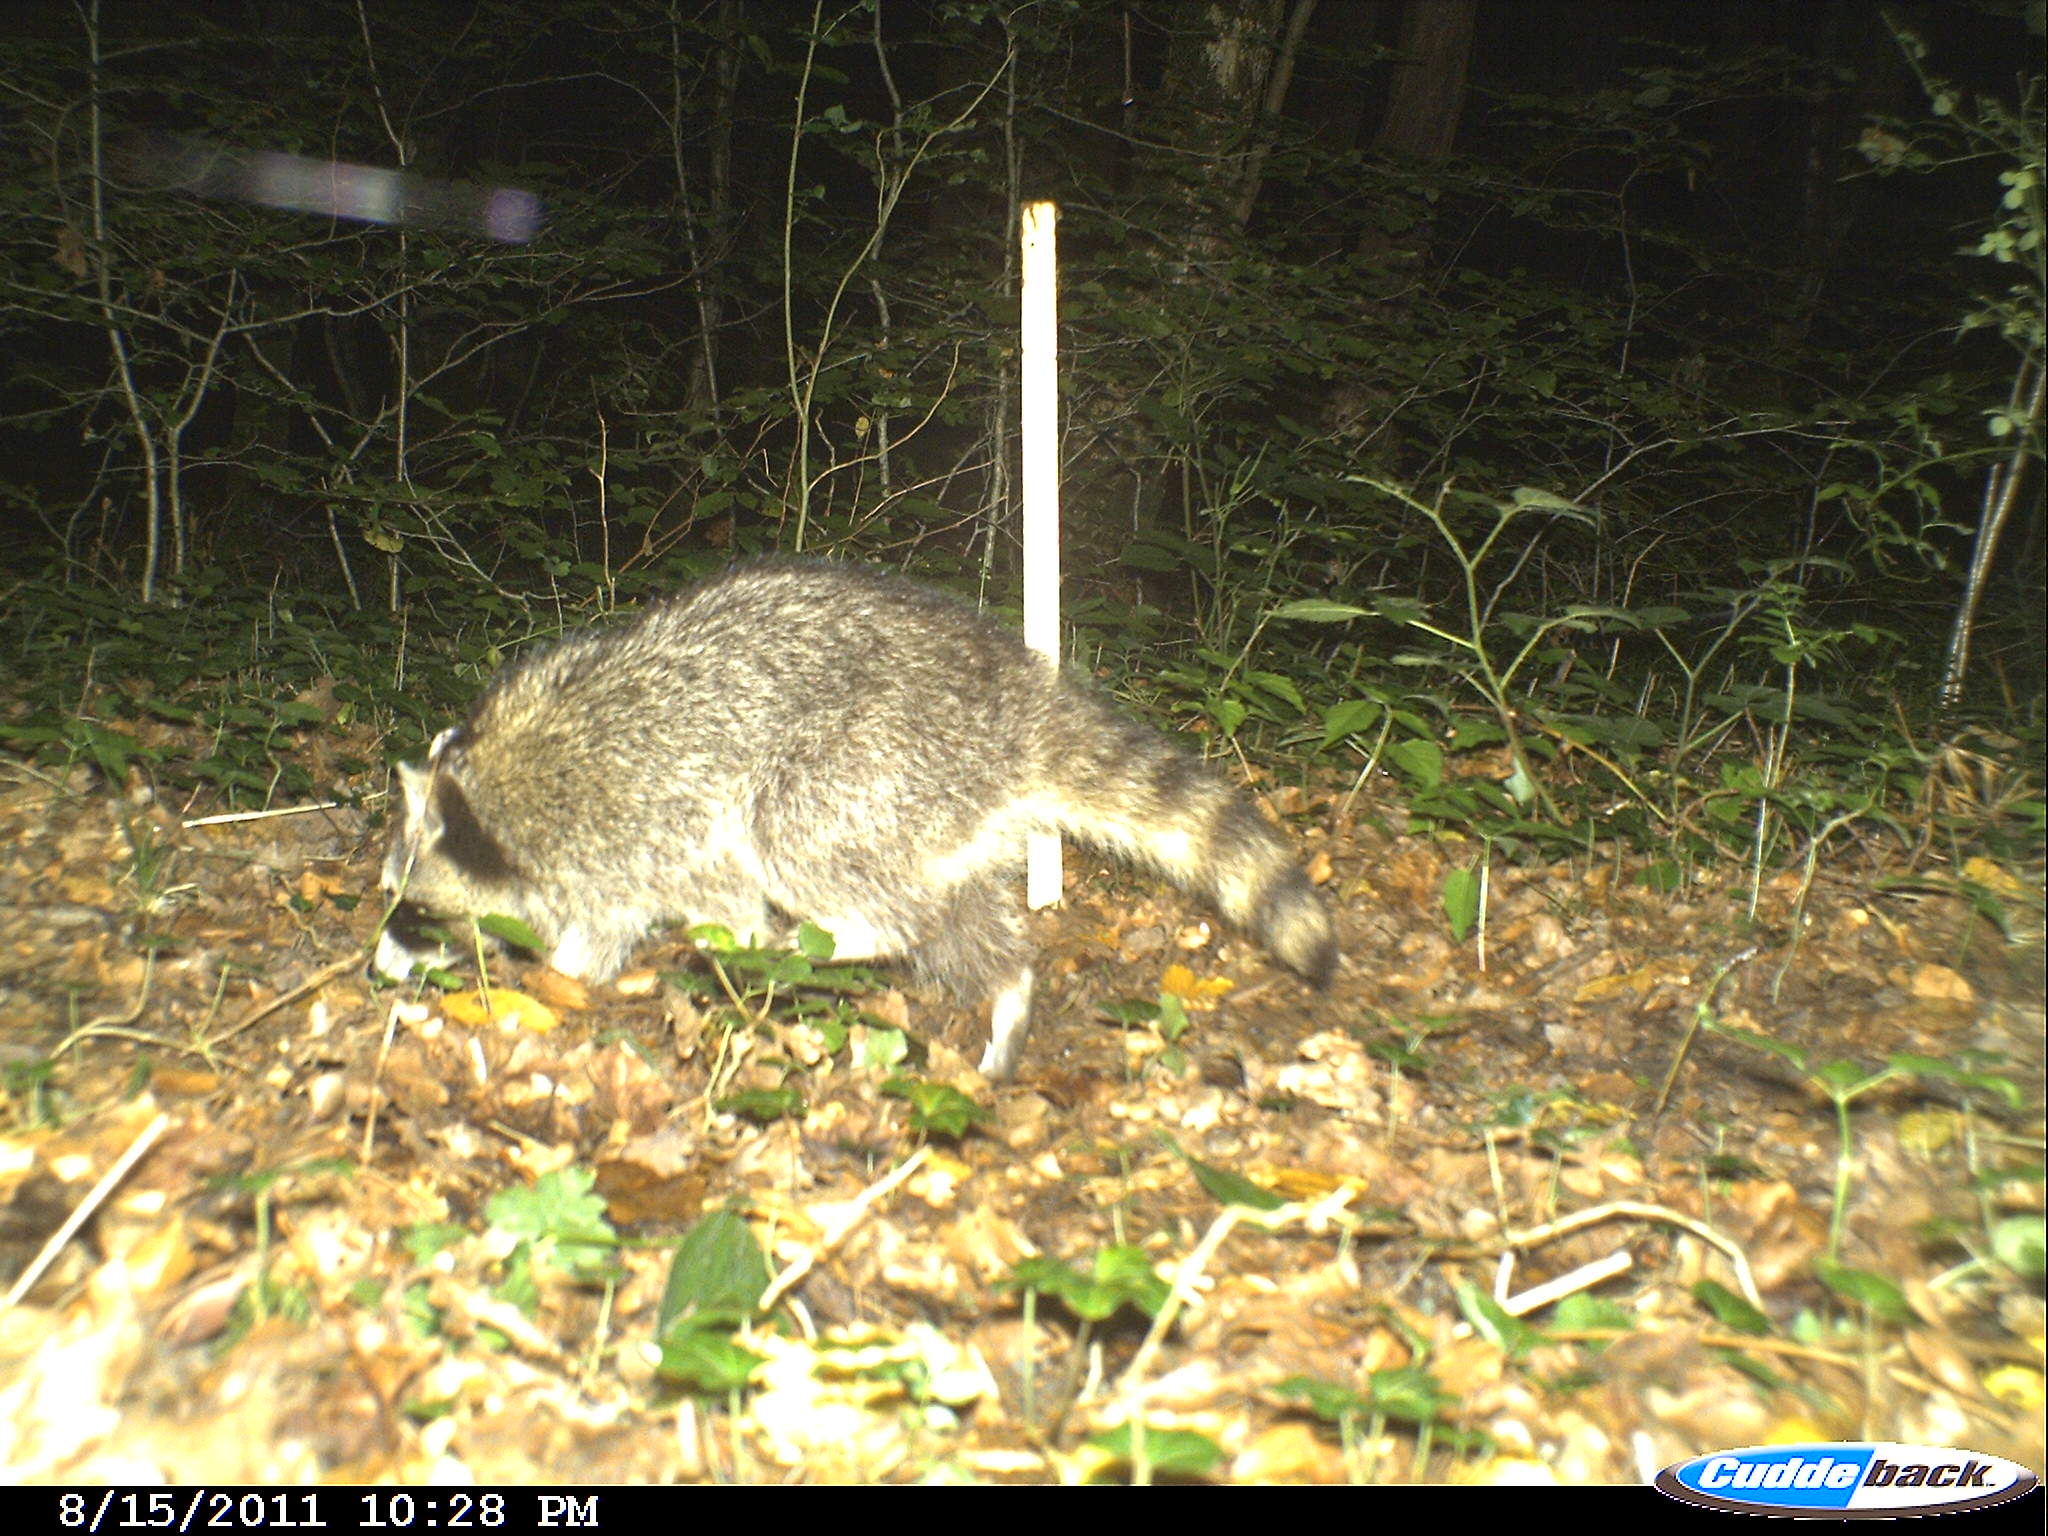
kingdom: Animalia
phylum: Chordata
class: Mammalia
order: Carnivora
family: Procyonidae
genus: Procyon
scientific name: Procyon lotor
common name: Raccoon
